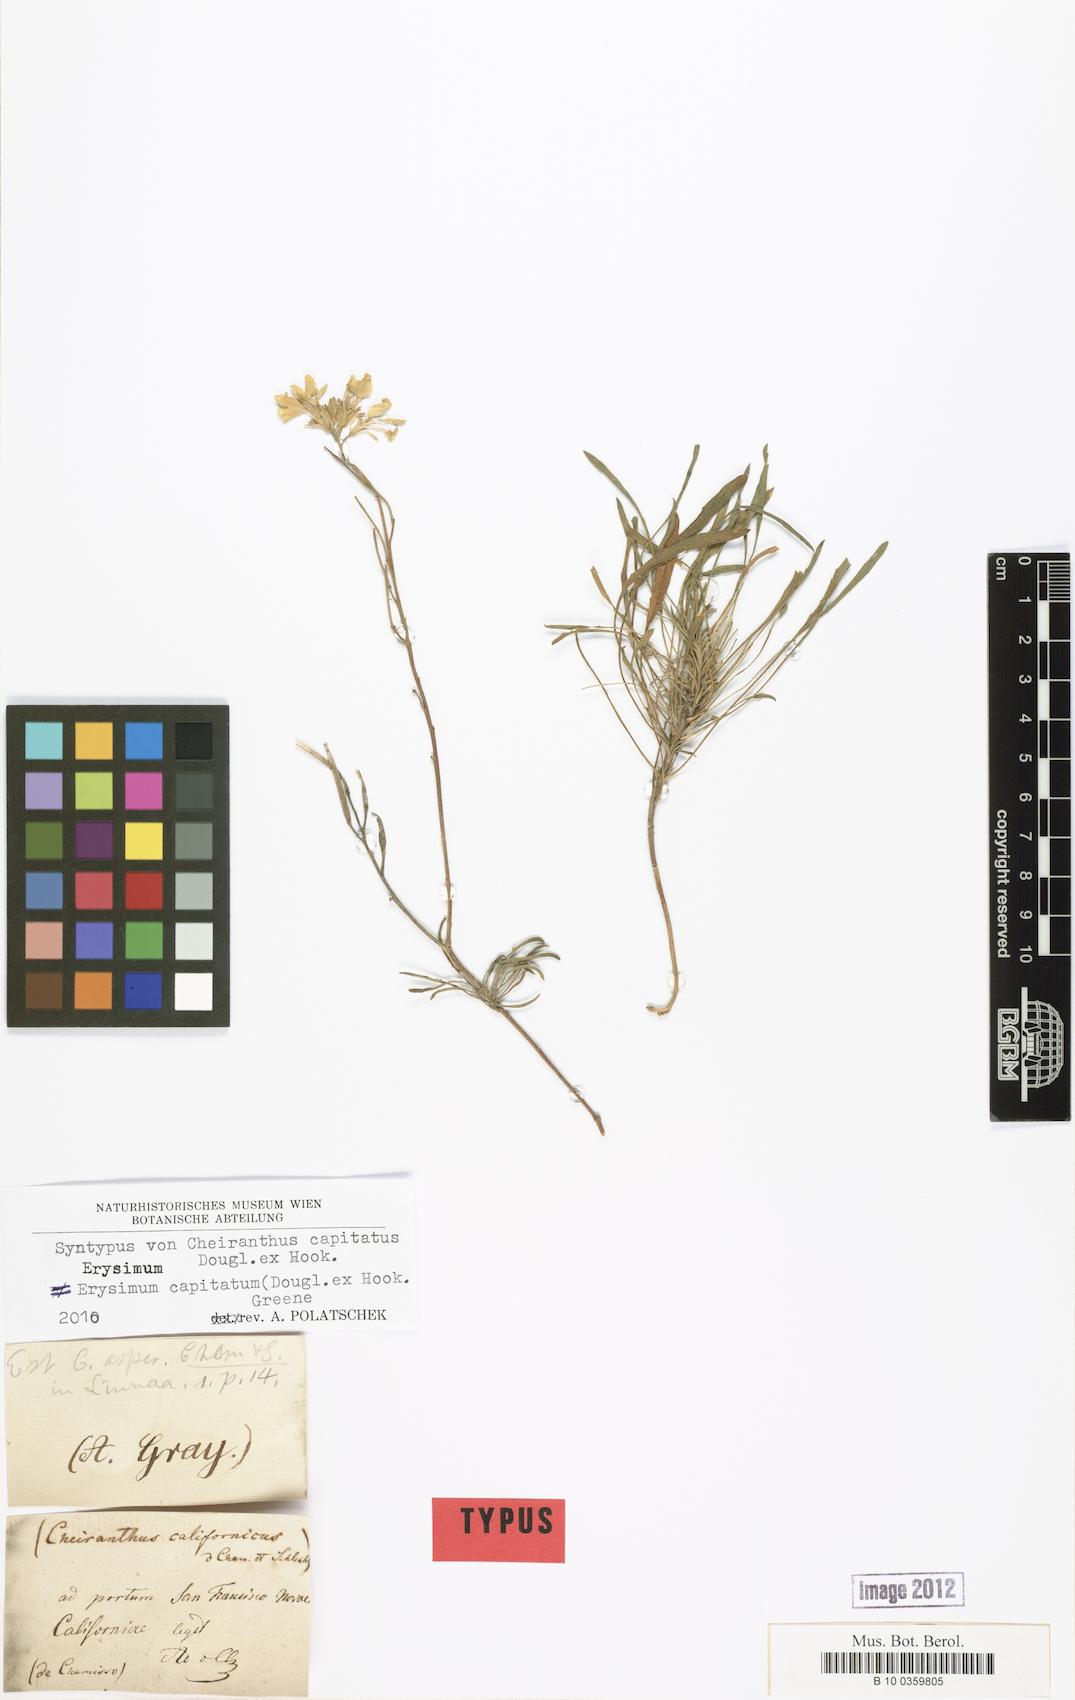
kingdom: Plantae
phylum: Tracheophyta
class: Magnoliopsida
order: Brassicales
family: Brassicaceae
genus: Erysimum
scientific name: Erysimum capitatum
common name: Western wallflower
